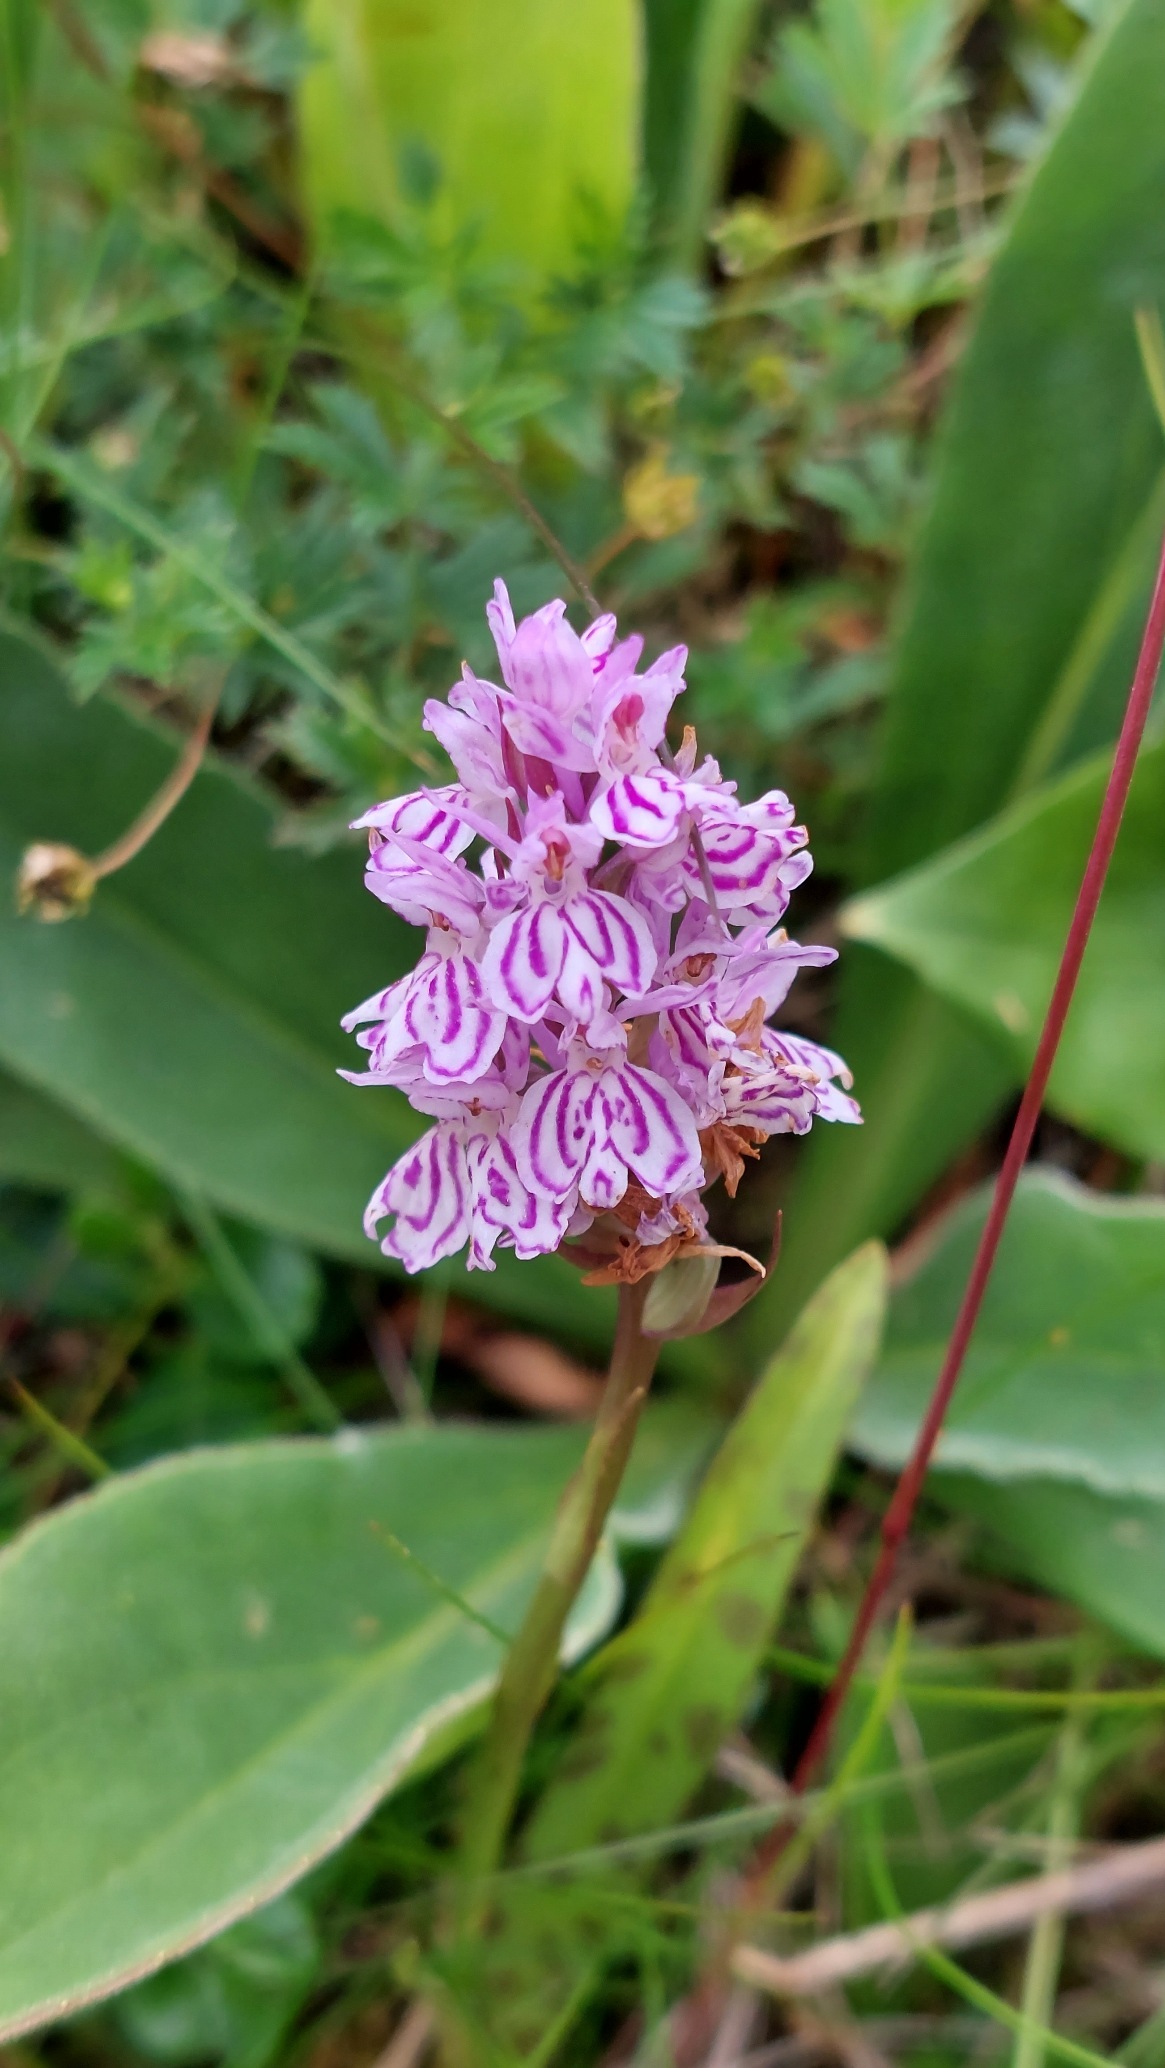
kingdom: Plantae
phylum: Tracheophyta
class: Liliopsida
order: Asparagales
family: Orchidaceae
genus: Dactylorhiza
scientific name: Dactylorhiza maculata
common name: Plettet gøgeurt
